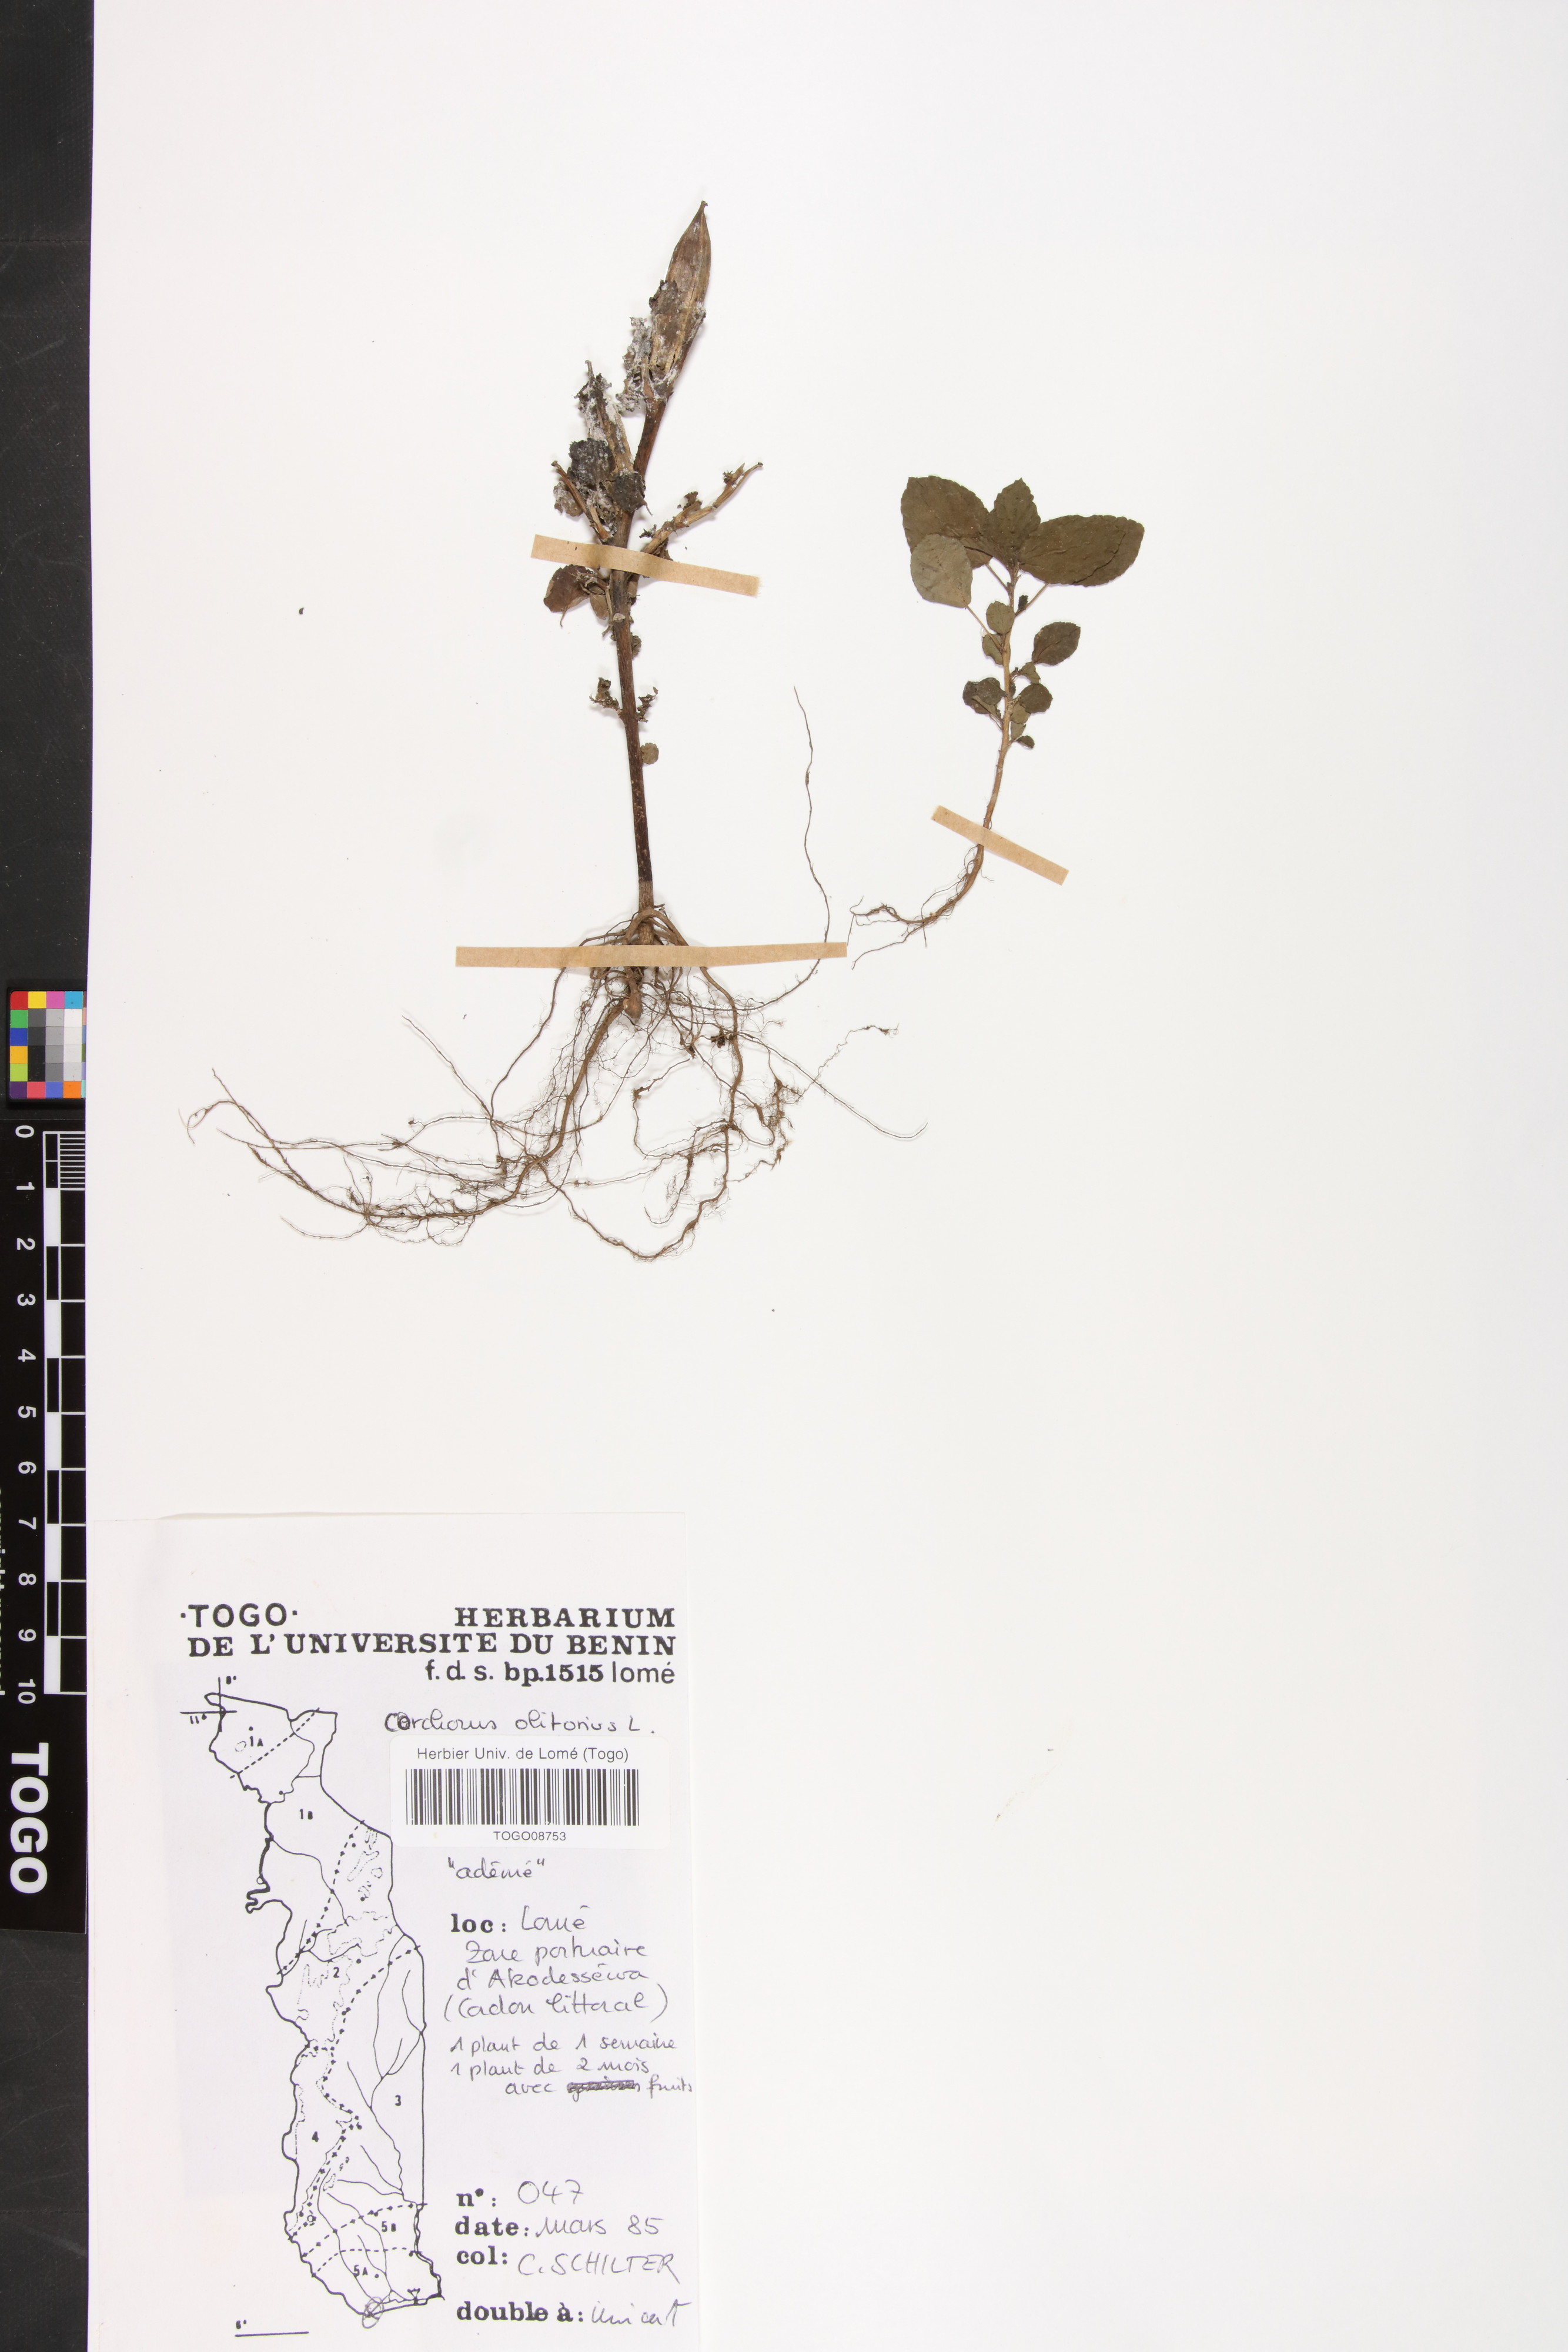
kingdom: Plantae
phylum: Tracheophyta
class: Magnoliopsida
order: Malvales
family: Malvaceae
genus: Corchorus
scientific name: Corchorus olitorius
